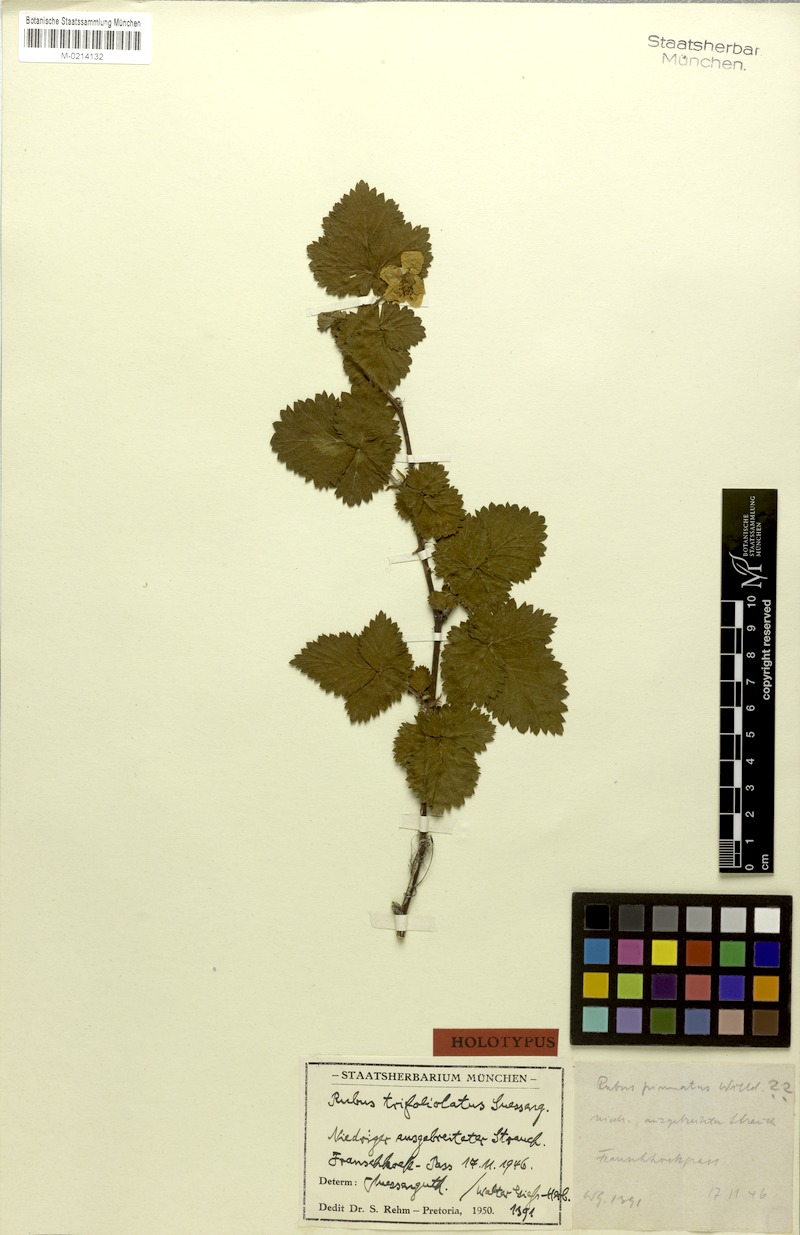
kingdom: Plantae
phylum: Tracheophyta
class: Magnoliopsida
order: Rosales
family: Rosaceae
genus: Rubus
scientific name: Rubus trifoliolatus
